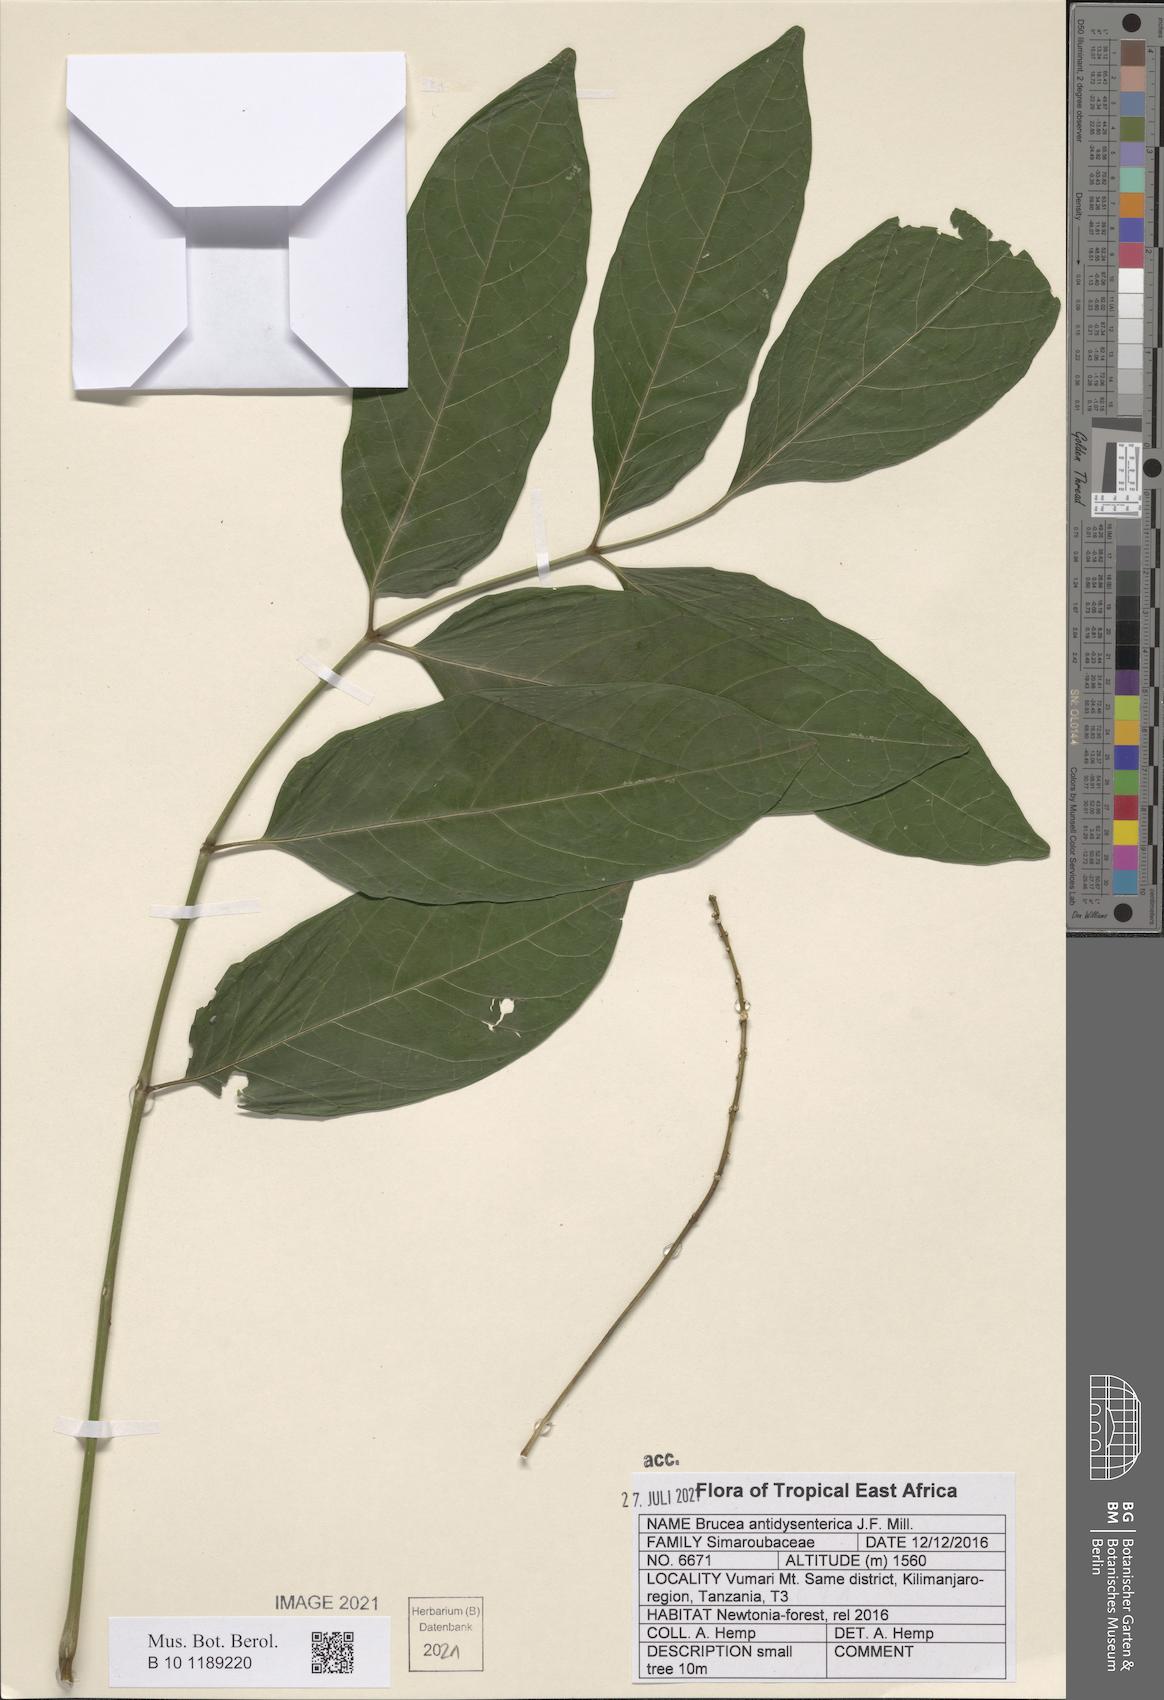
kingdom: Plantae
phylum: Tracheophyta
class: Magnoliopsida
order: Sapindales
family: Simaroubaceae
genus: Brucea
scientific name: Brucea antidysenterica
